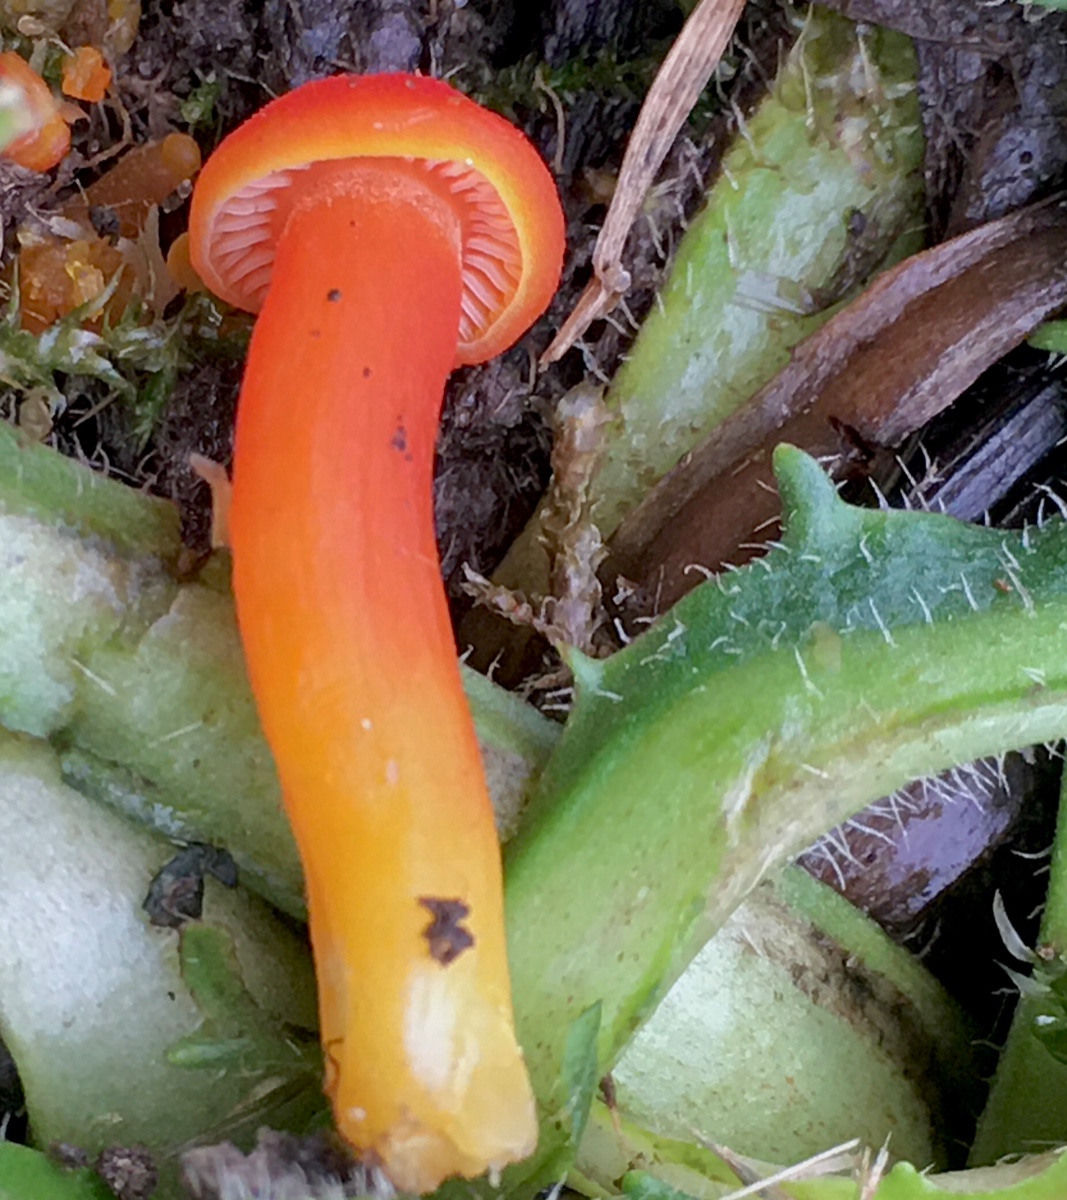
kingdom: Fungi
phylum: Basidiomycota
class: Agaricomycetes
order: Agaricales
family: Hygrophoraceae
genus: Hygrocybe
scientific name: Hygrocybe miniata
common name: mønje-vokshat
